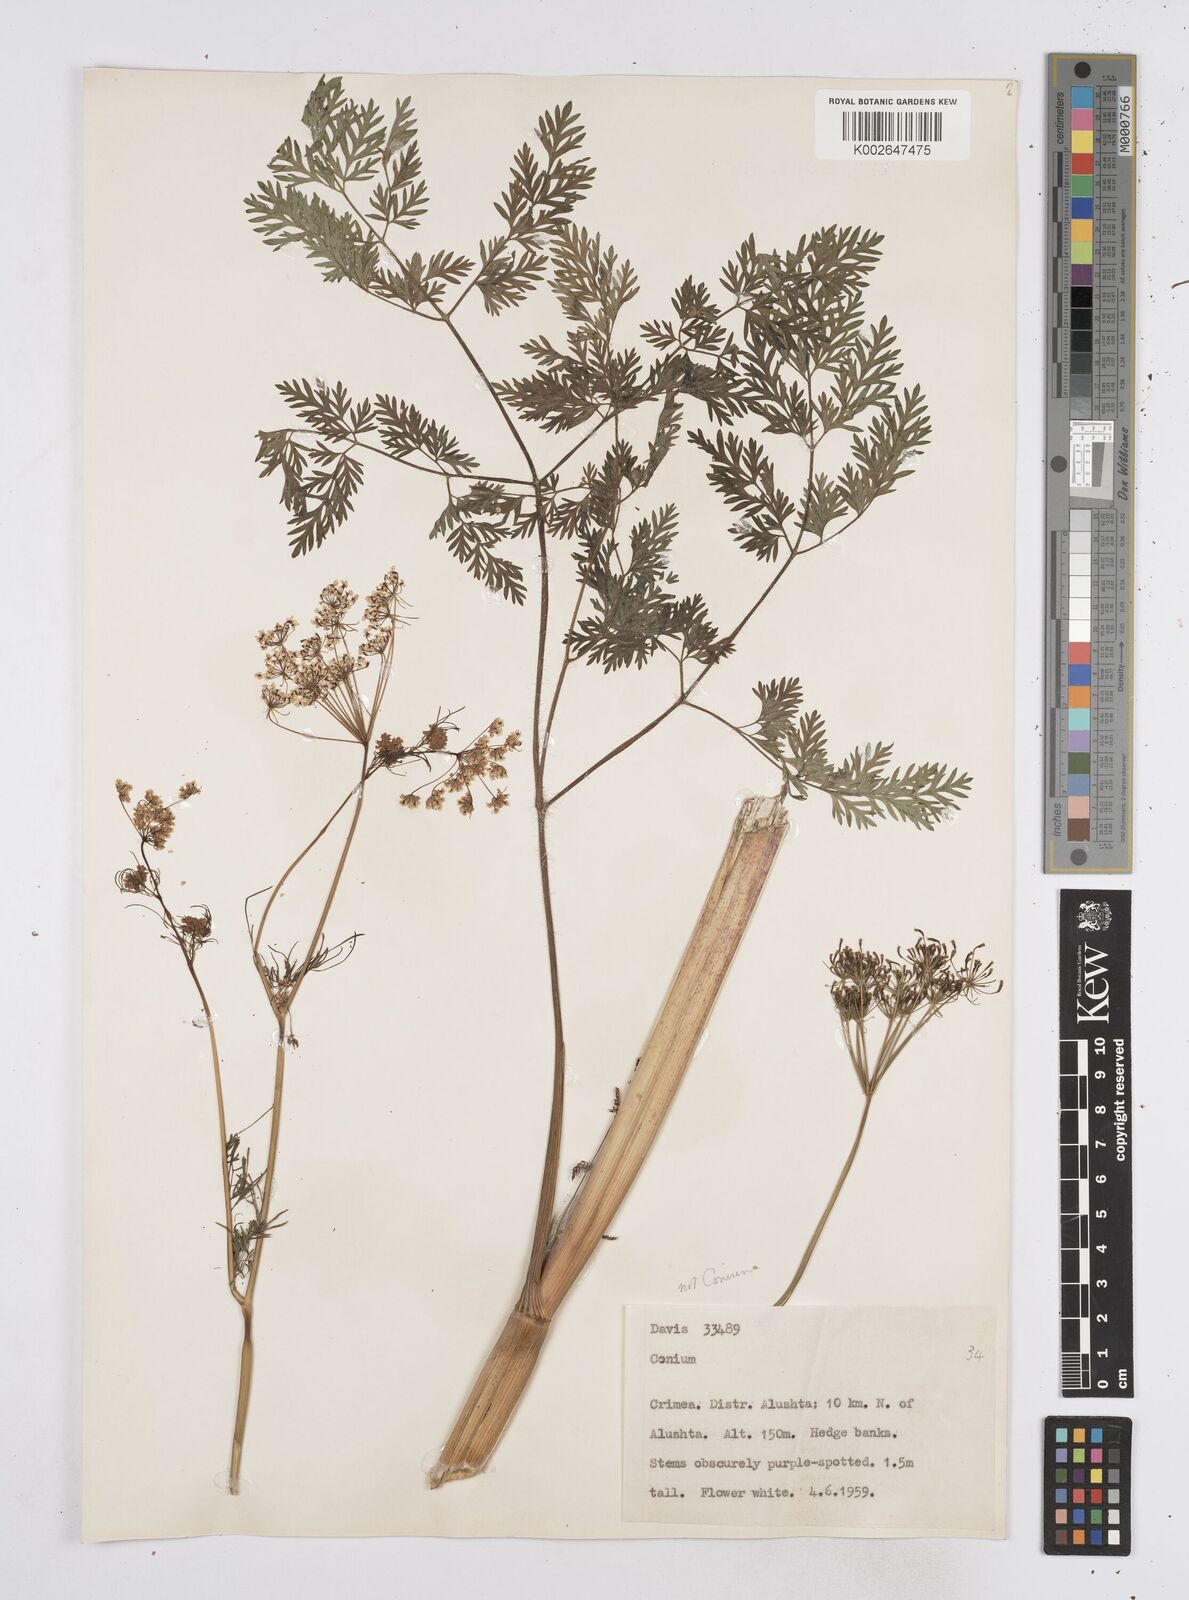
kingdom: Plantae
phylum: Tracheophyta
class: Magnoliopsida
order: Apiales
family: Apiaceae
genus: Conium
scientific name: Conium
